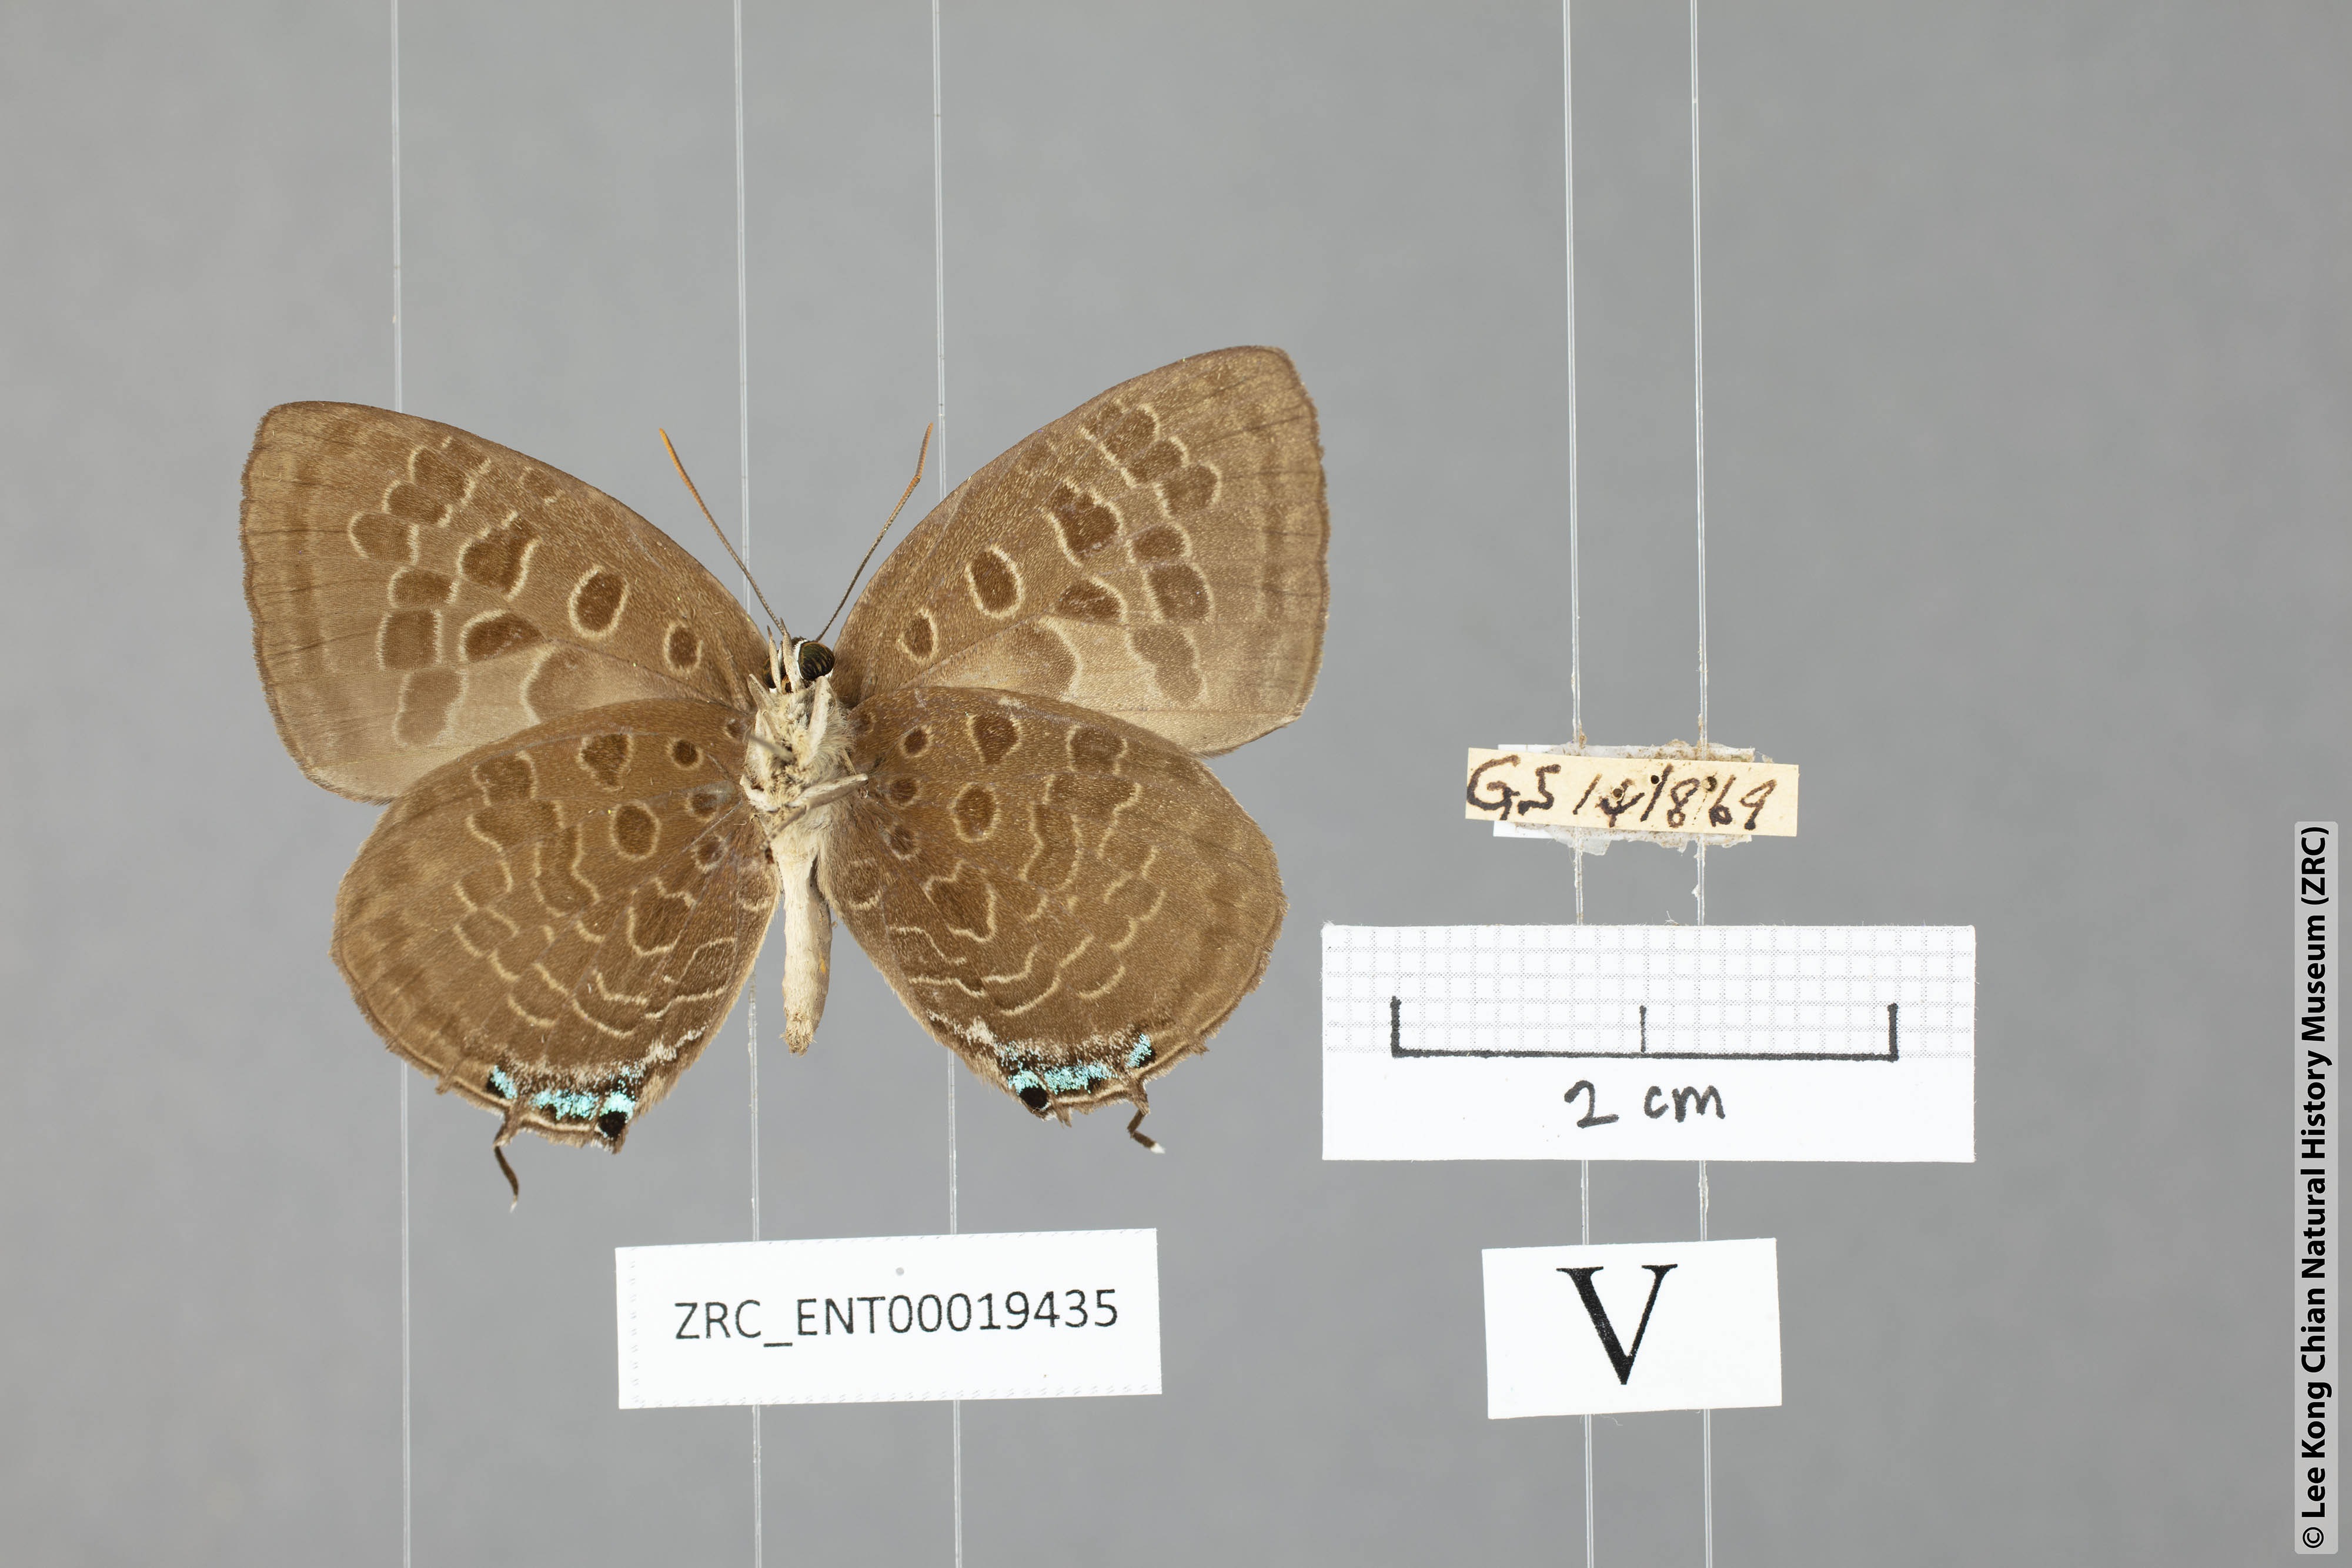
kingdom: Animalia
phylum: Arthropoda
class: Insecta
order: Lepidoptera
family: Lycaenidae
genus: Arhopala
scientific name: Arhopala eumolphus
